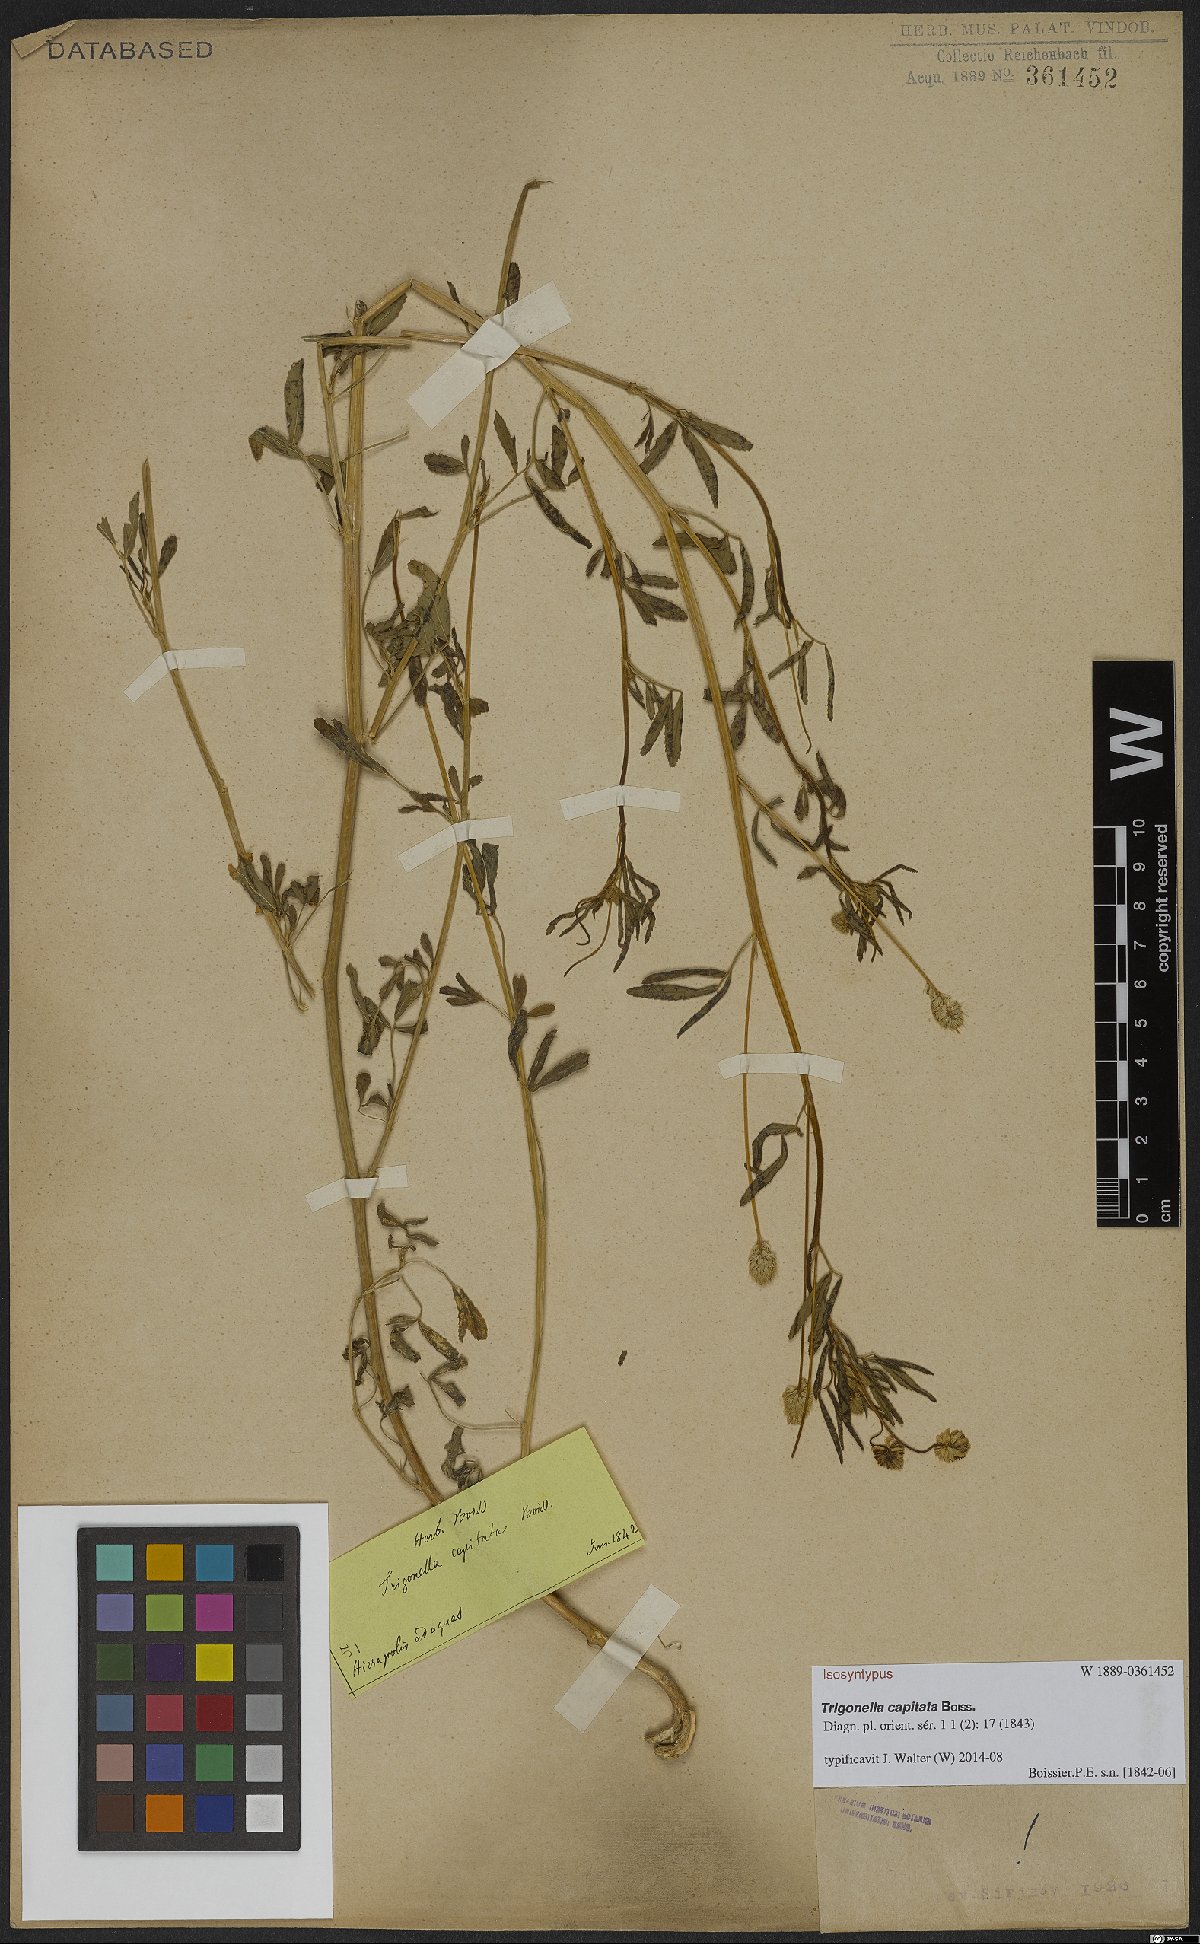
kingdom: Plantae
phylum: Tracheophyta
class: Magnoliopsida
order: Fabales
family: Fabaceae
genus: Trigonella
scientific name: Trigonella capitata
